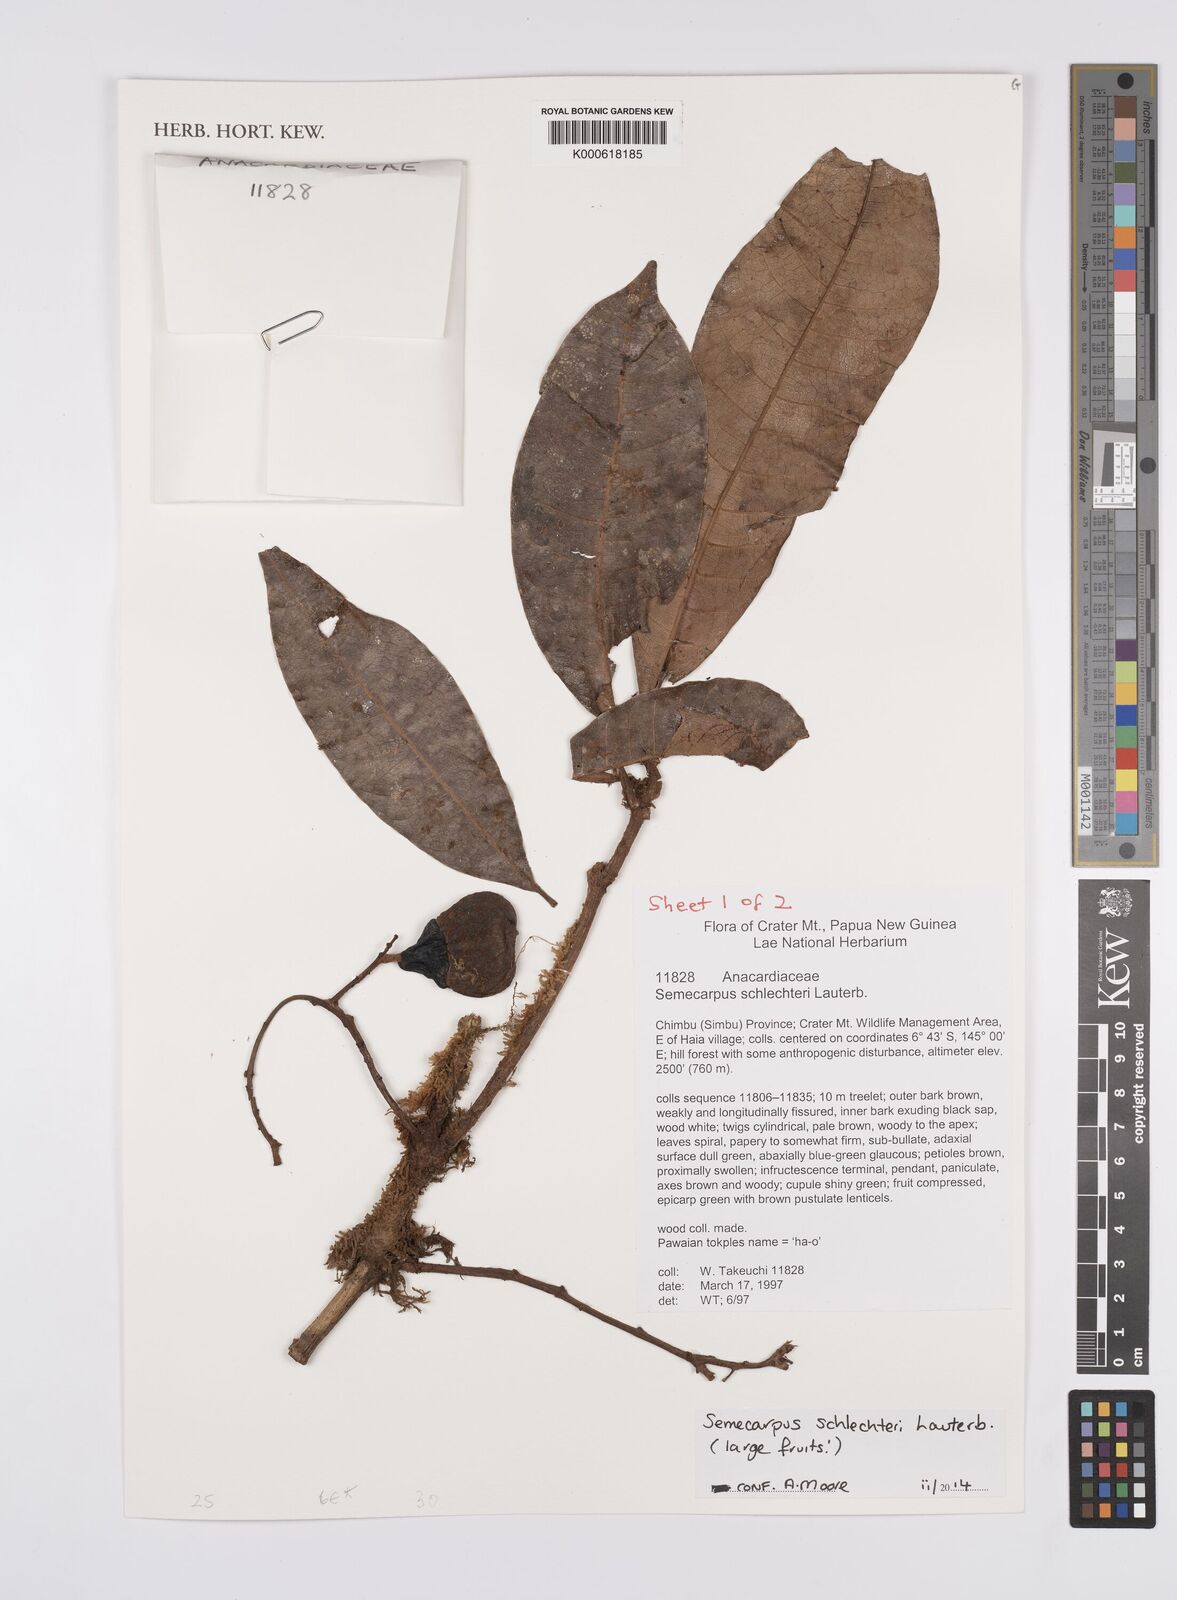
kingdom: Plantae
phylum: Tracheophyta
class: Magnoliopsida
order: Sapindales
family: Anacardiaceae
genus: Semecarpus
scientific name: Semecarpus schlechteri
